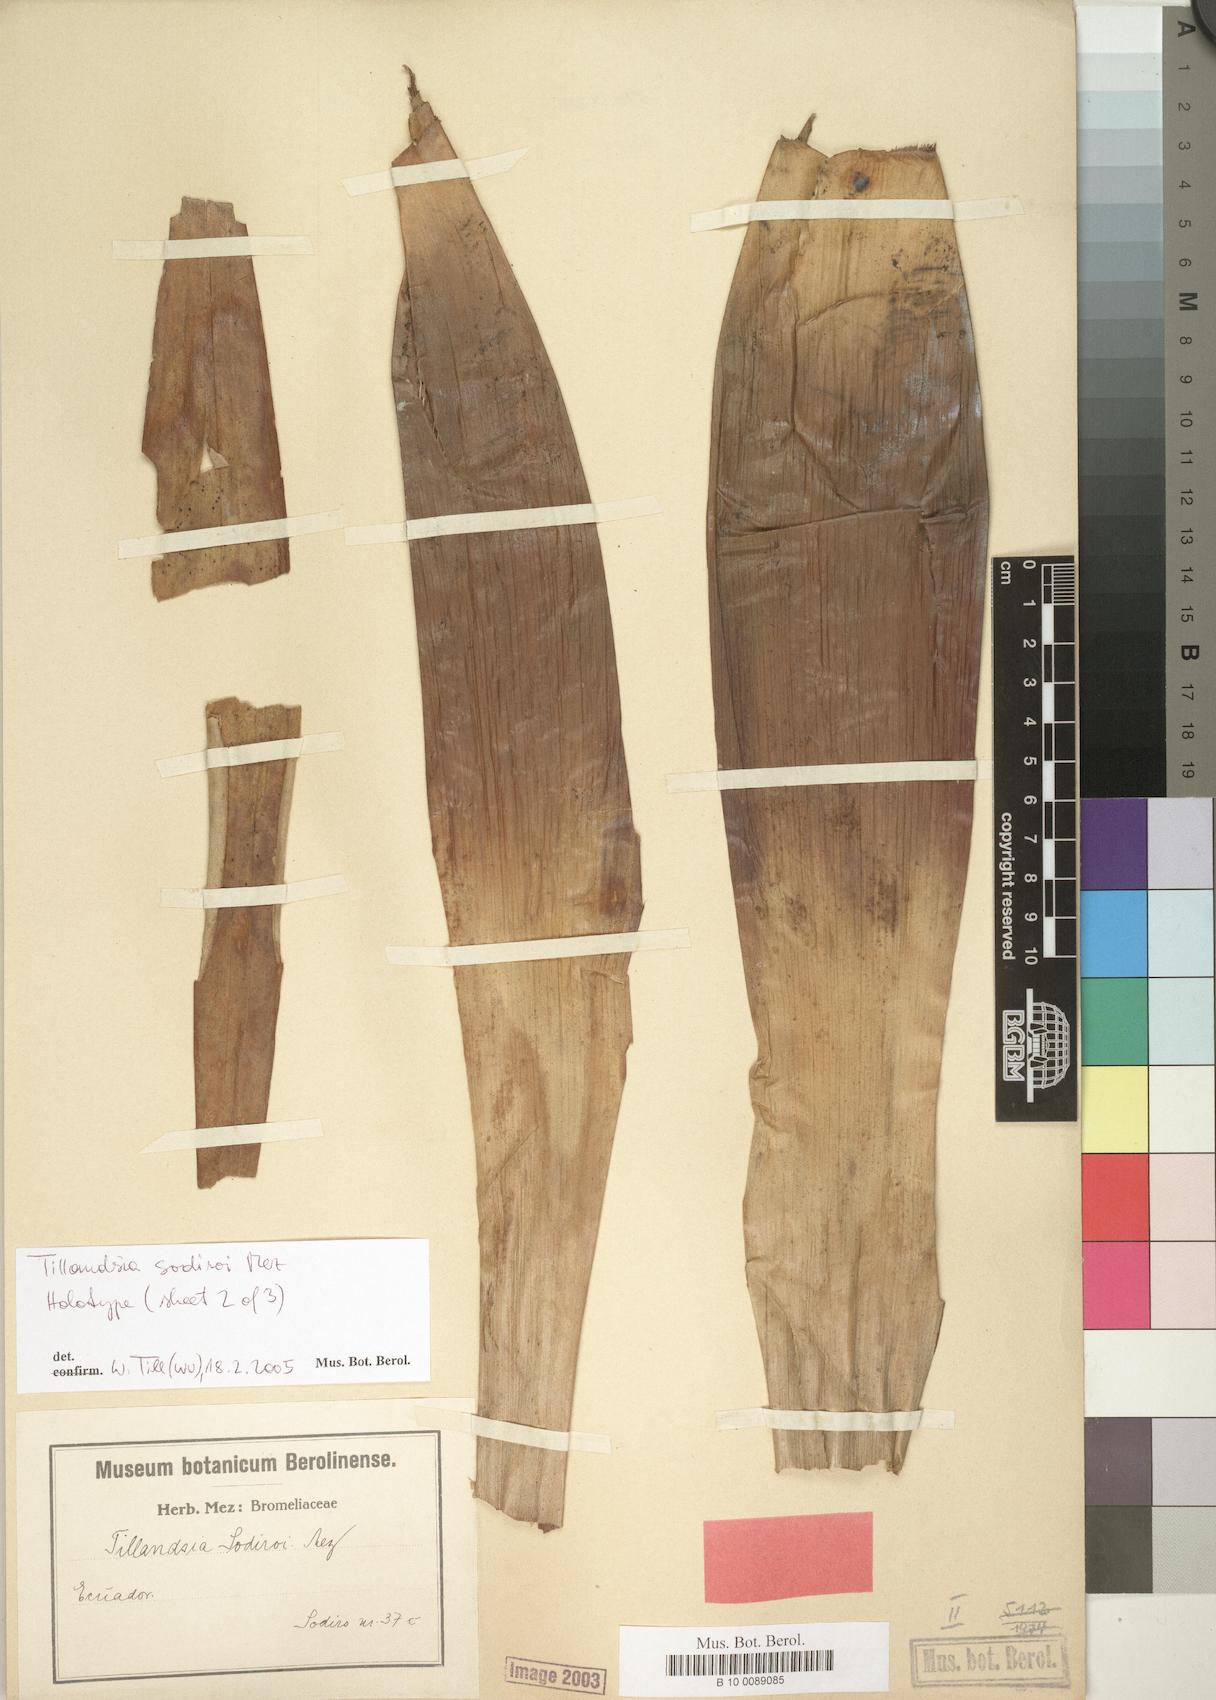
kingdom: Plantae
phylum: Tracheophyta
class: Liliopsida
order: Poales
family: Bromeliaceae
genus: Tillandsia
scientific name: Tillandsia sodiroi
